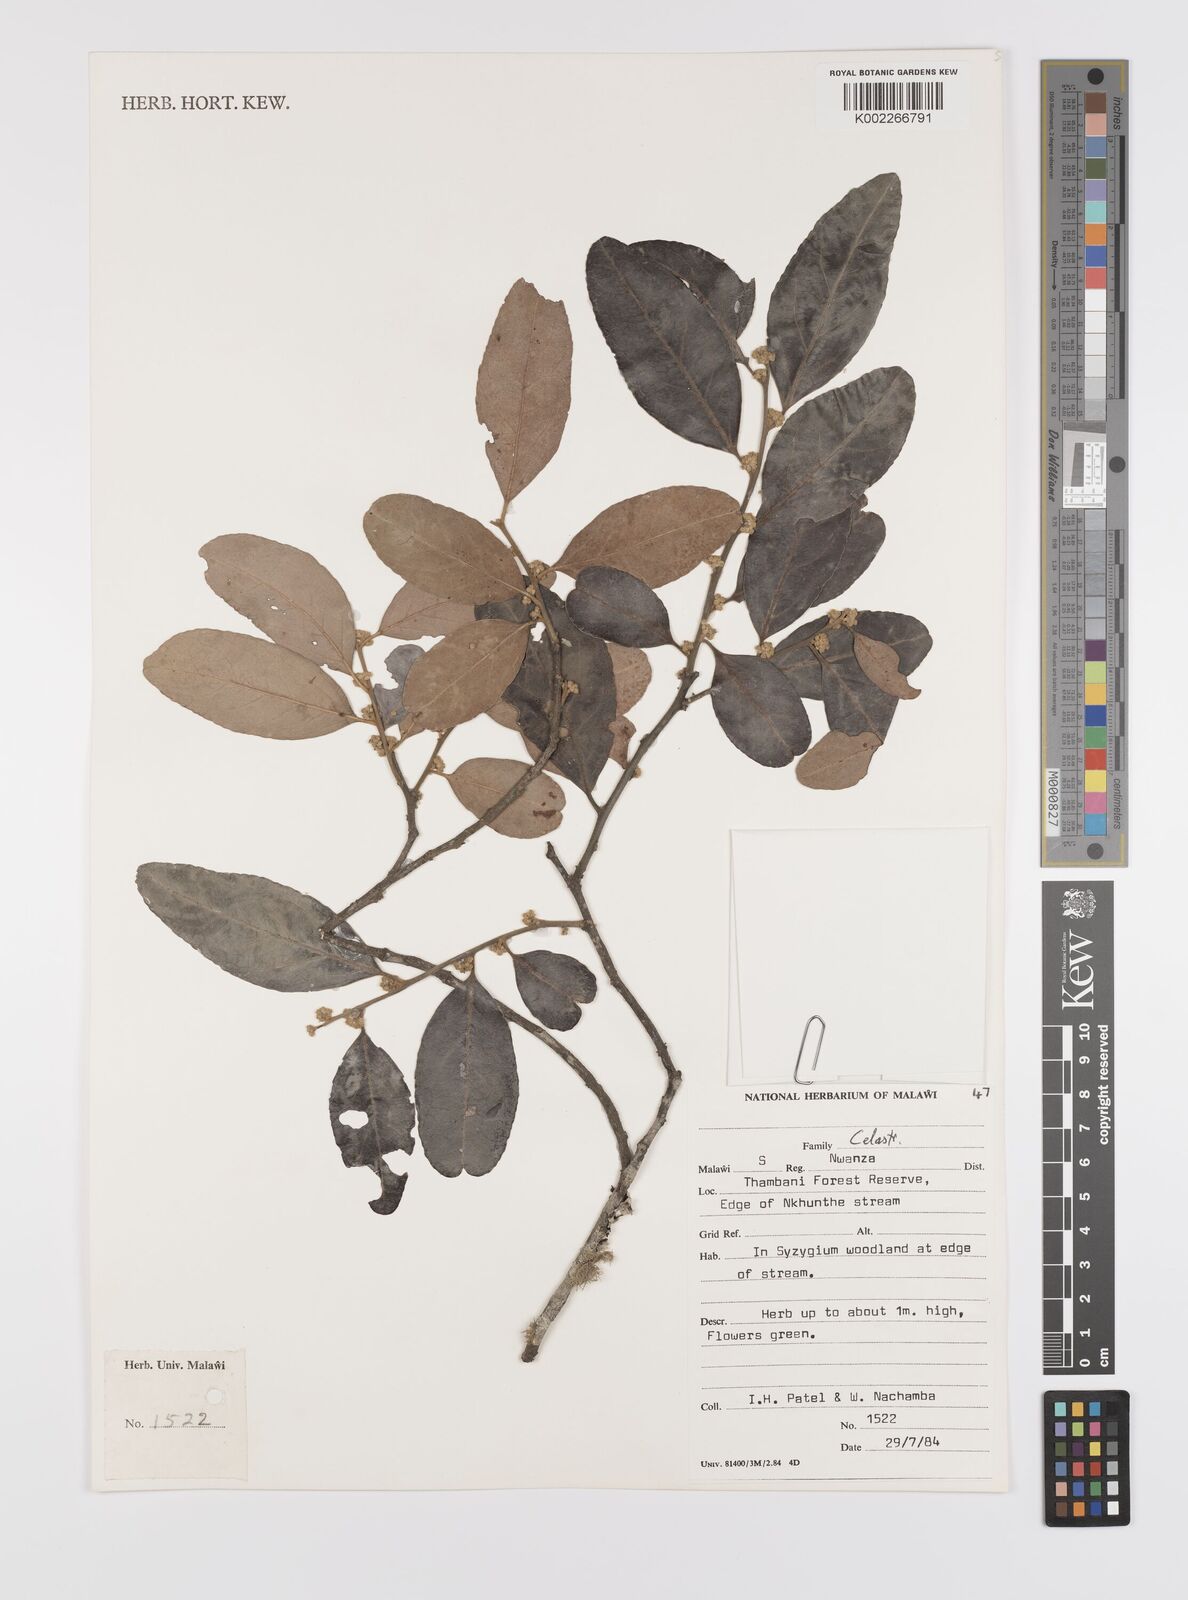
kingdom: Plantae
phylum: Tracheophyta
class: Magnoliopsida
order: Celastrales
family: Celastraceae
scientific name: Celastraceae
